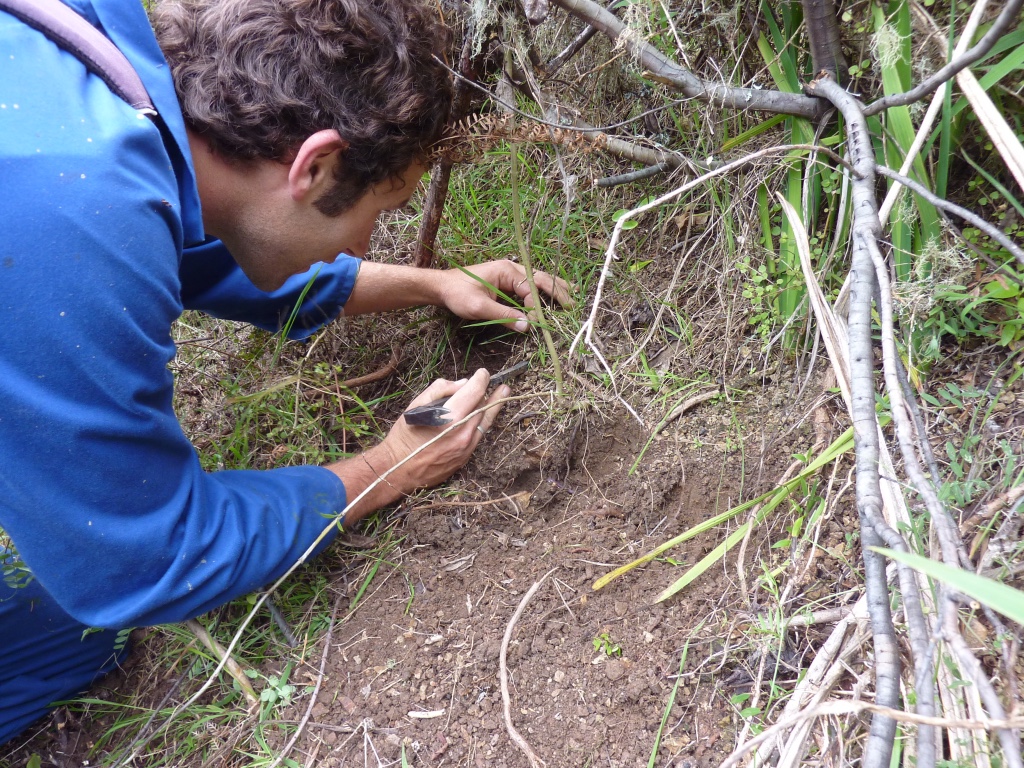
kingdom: Plantae
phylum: Tracheophyta
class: Liliopsida
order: Asparagales
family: Iridaceae
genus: Aristea
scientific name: Aristea ecklonii
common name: Blue corn-lily
